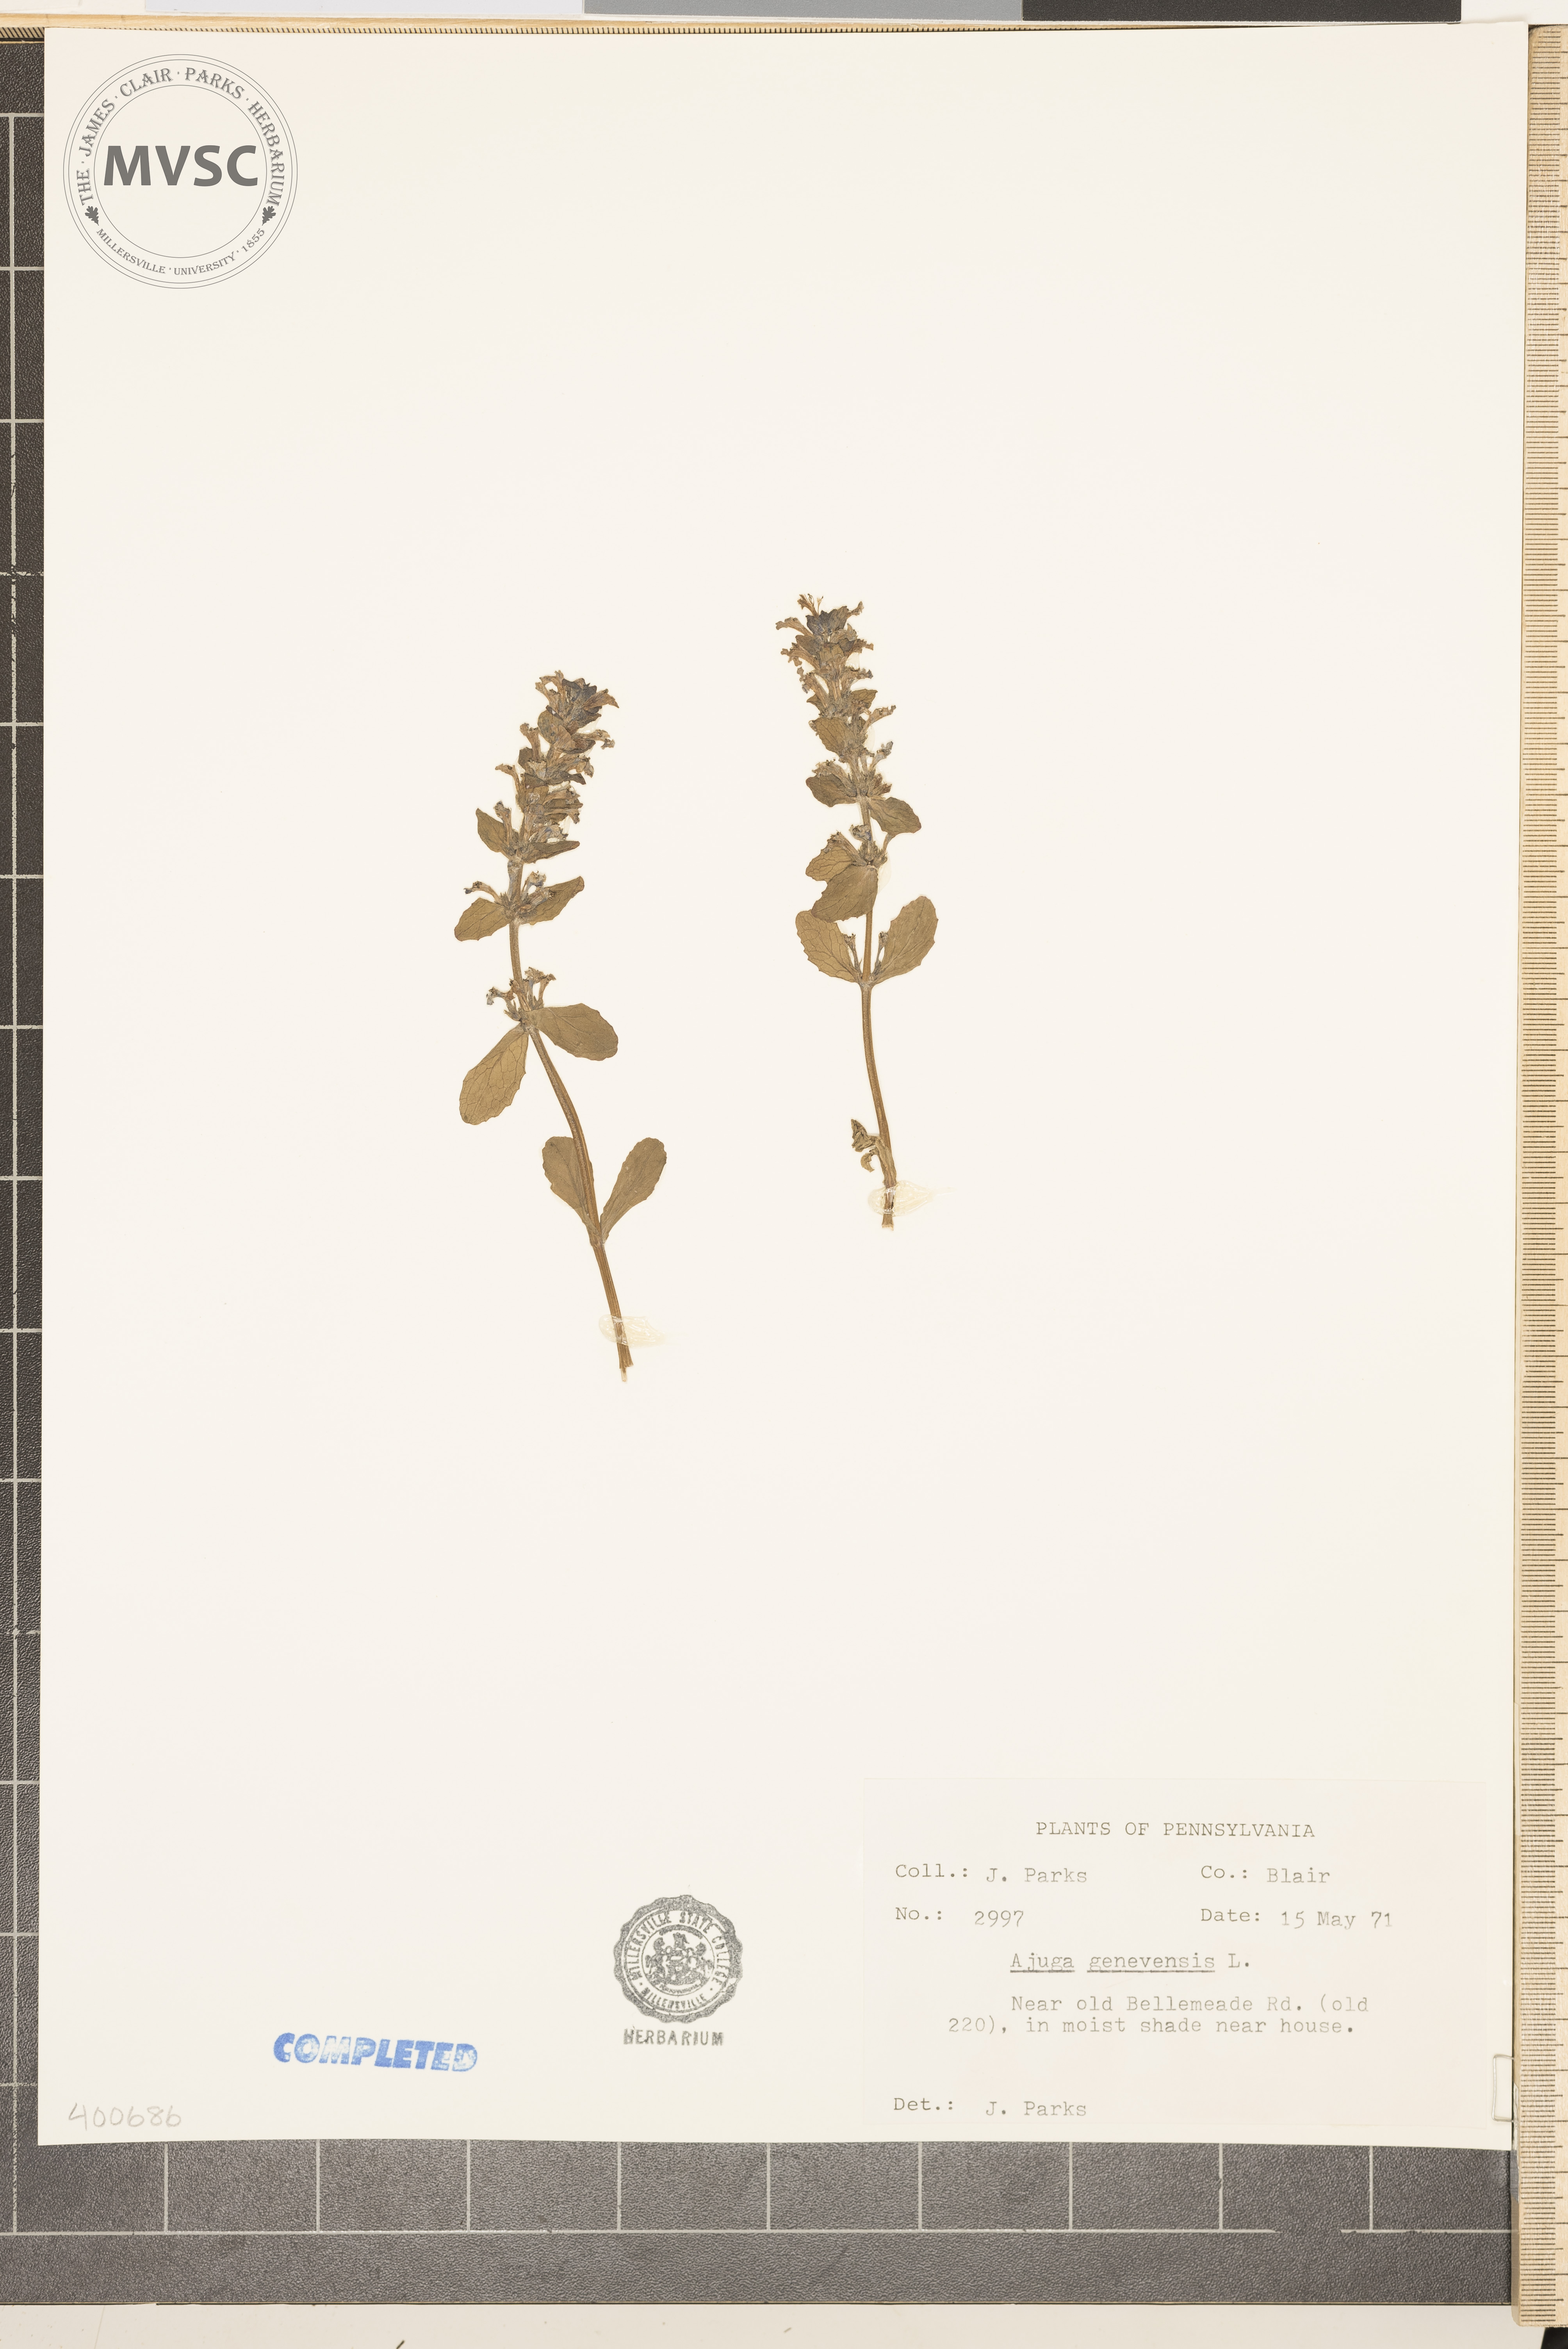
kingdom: Plantae
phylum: Tracheophyta
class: Magnoliopsida
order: Lamiales
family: Lamiaceae
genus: Ajuga
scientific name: Ajuga genevensis
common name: bugleweed
